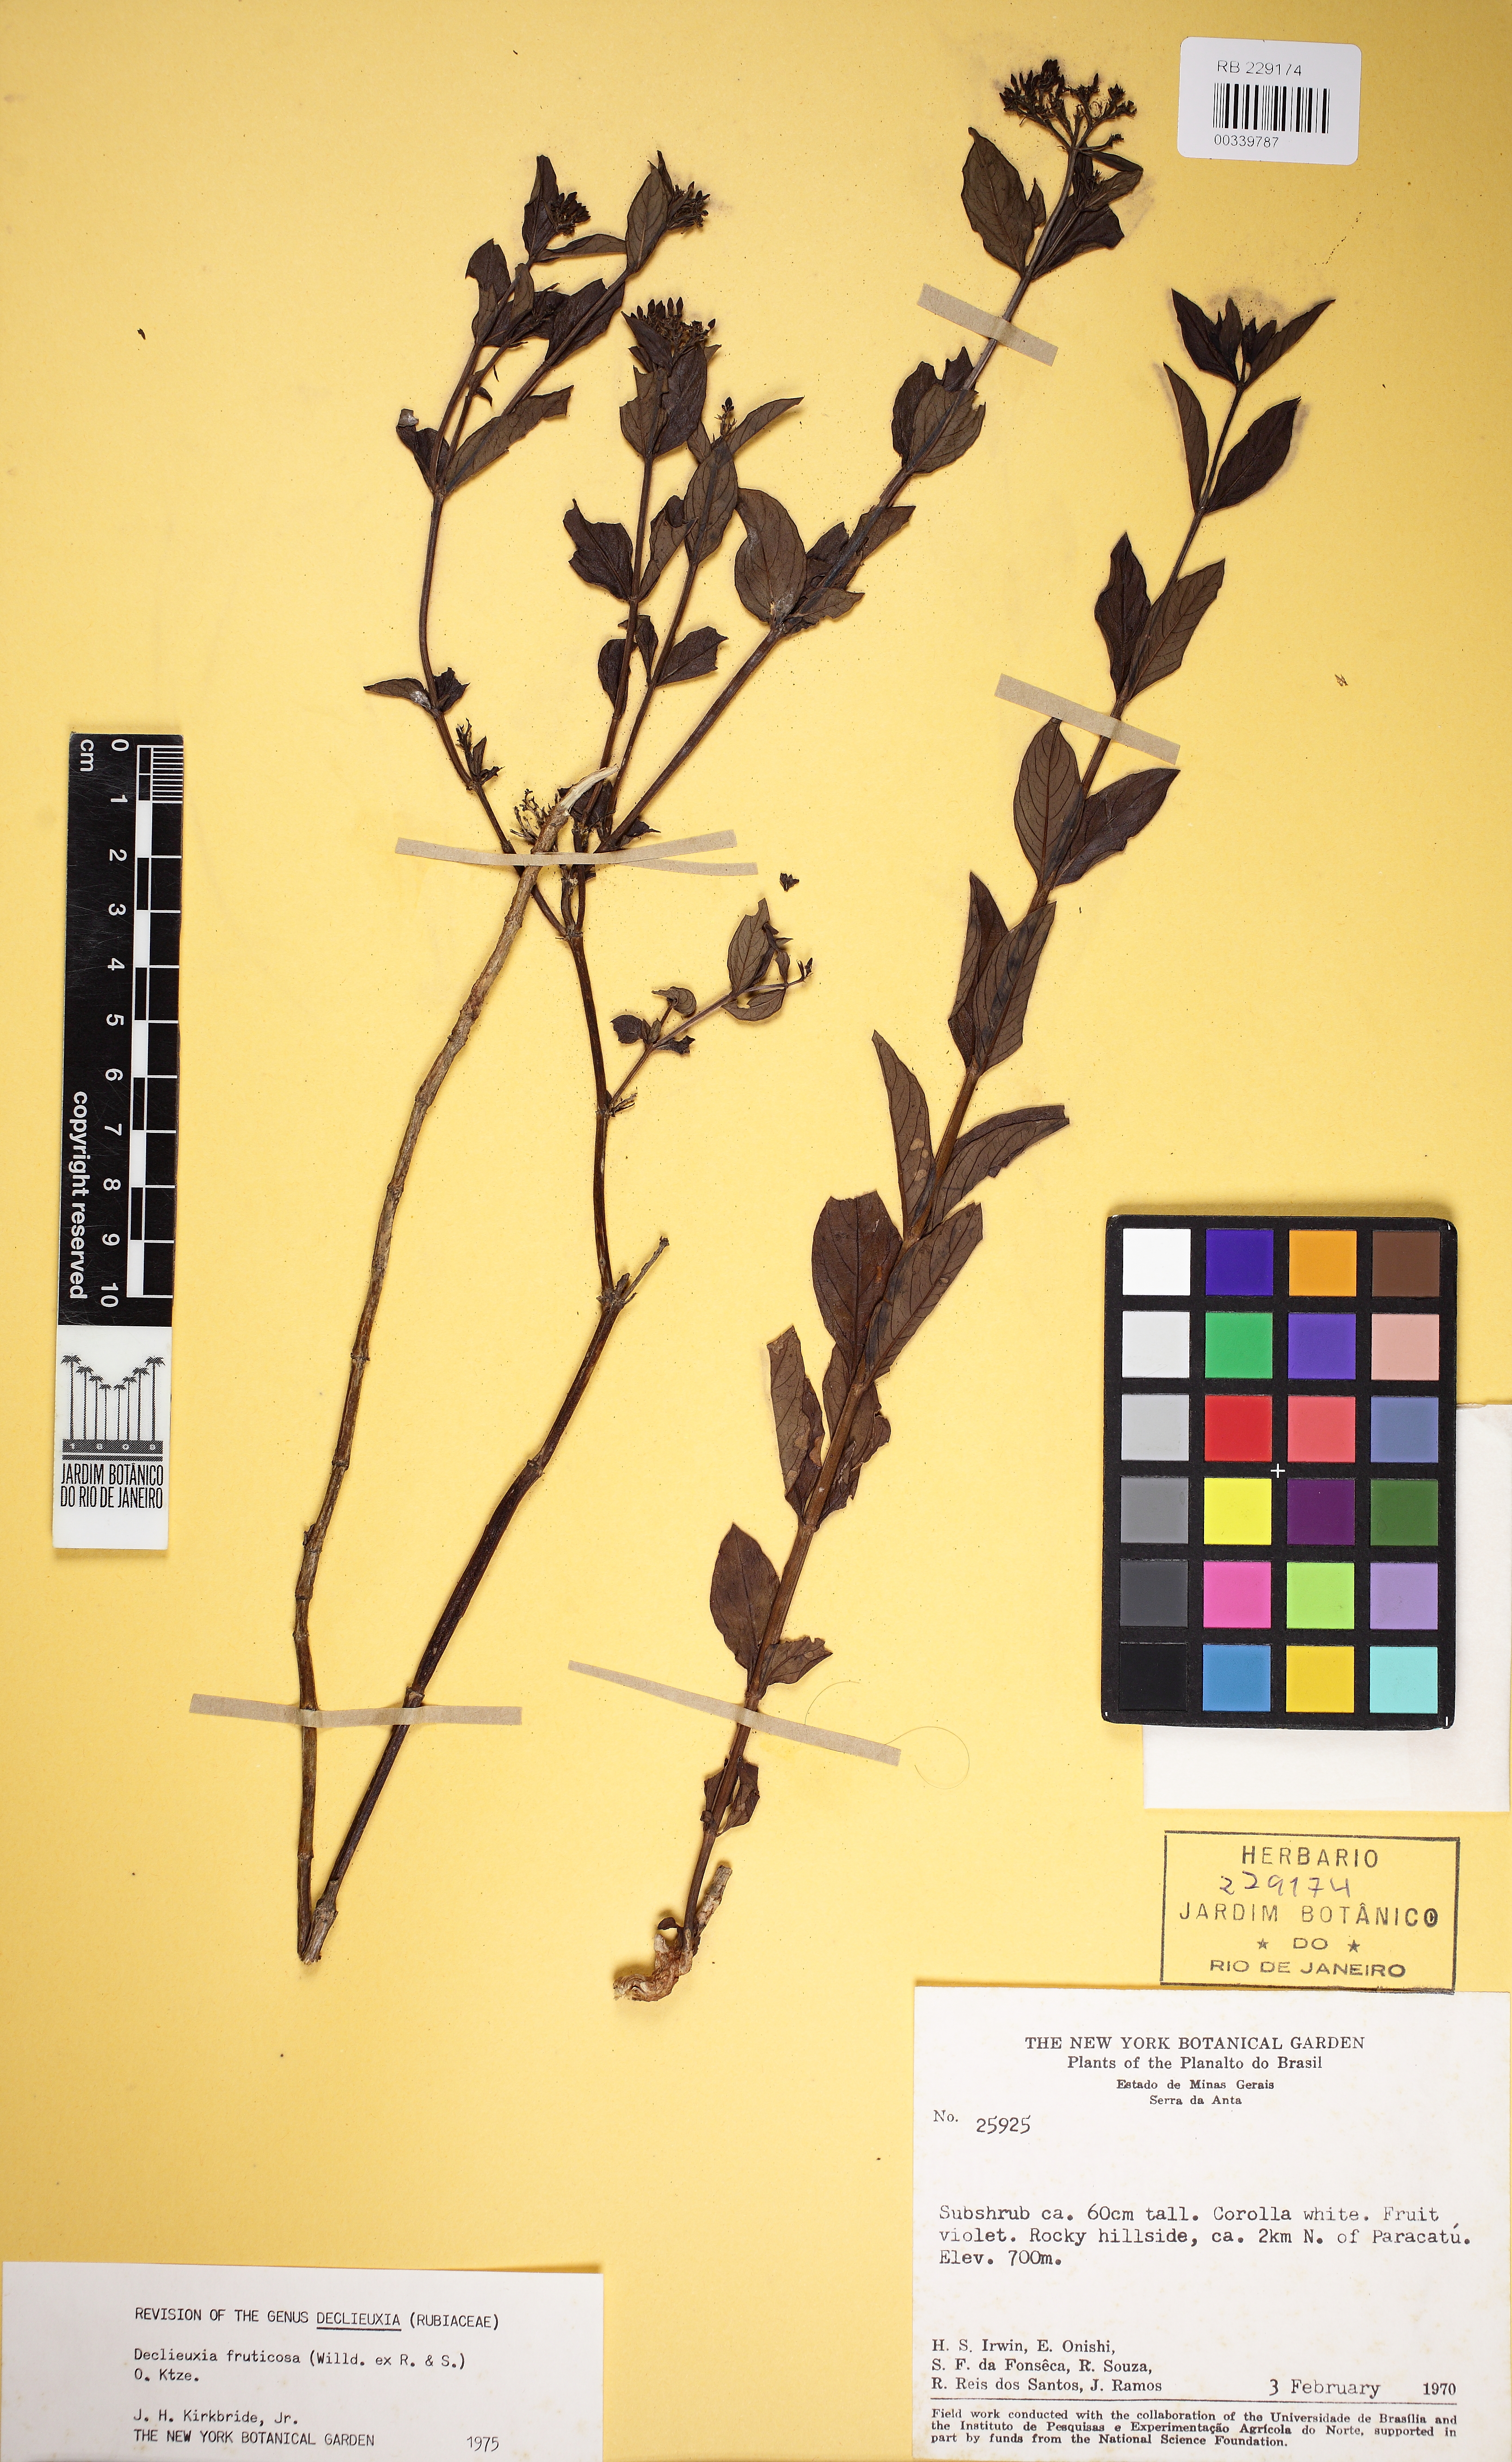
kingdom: Plantae
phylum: Tracheophyta
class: Magnoliopsida
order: Gentianales
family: Rubiaceae
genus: Declieuxia
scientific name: Declieuxia fruticosa
